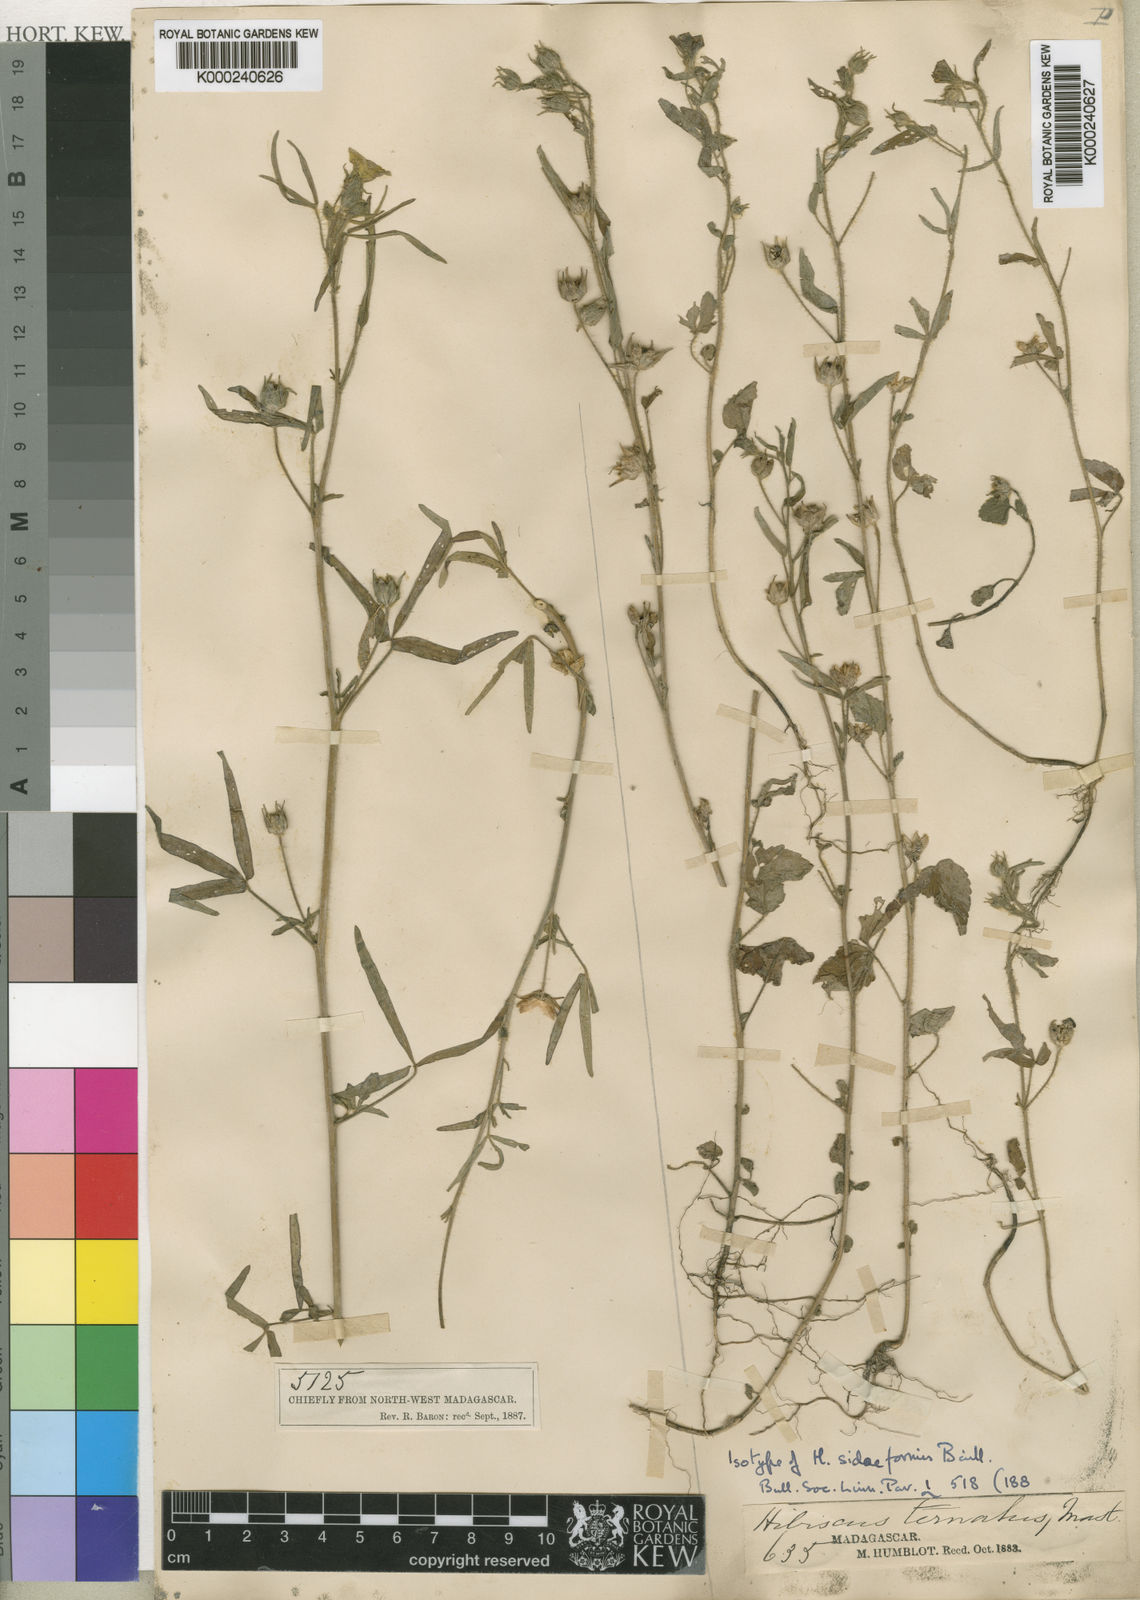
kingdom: Plantae
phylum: Tracheophyta
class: Magnoliopsida
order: Malvales
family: Malvaceae
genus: Hibiscus
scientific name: Hibiscus sidiformis
